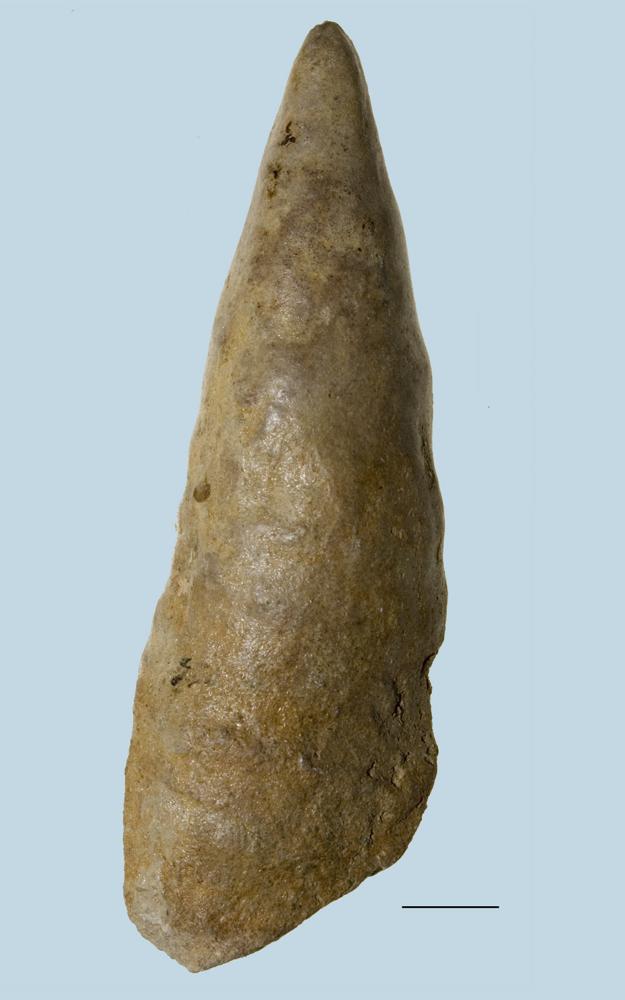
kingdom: Animalia
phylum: Mollusca
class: Gastropoda
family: Subulitidae
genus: Subulites
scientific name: Subulites Phasianella gigas
